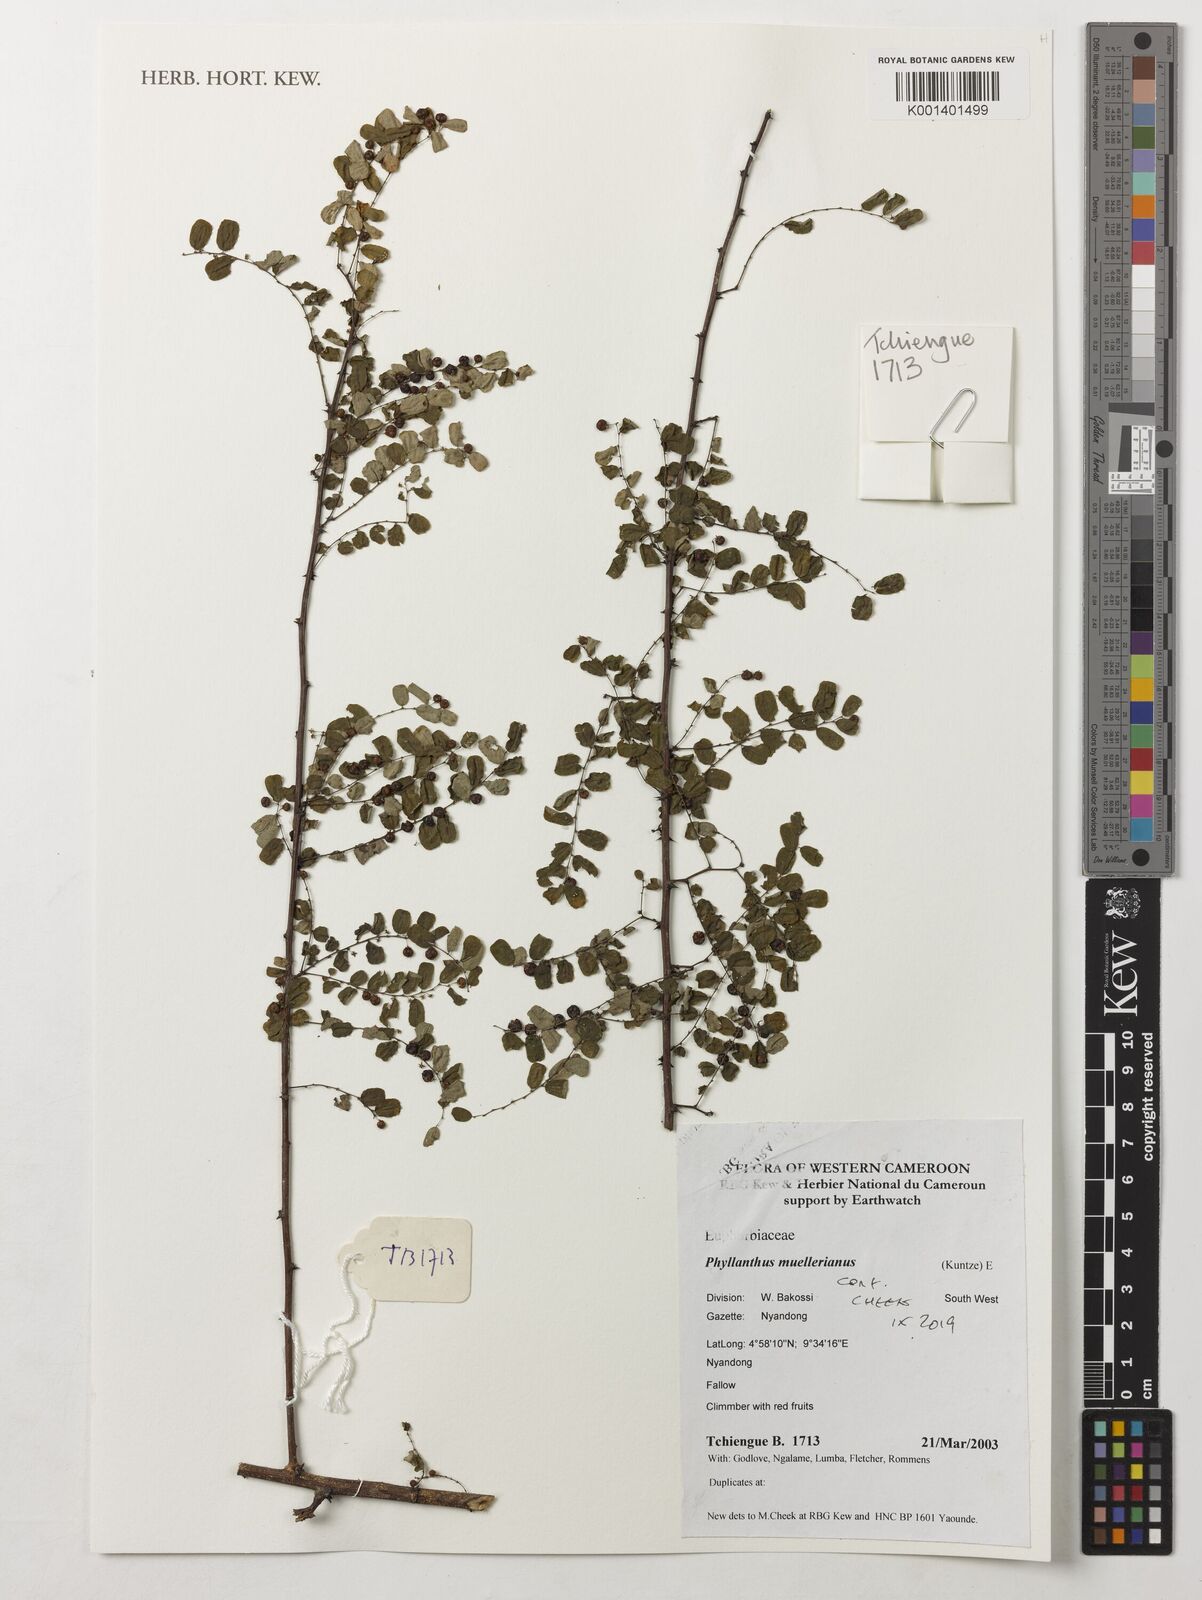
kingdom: Plantae
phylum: Tracheophyta
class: Magnoliopsida
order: Malpighiales
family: Phyllanthaceae
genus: Phyllanthus
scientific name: Phyllanthus muellerianus
